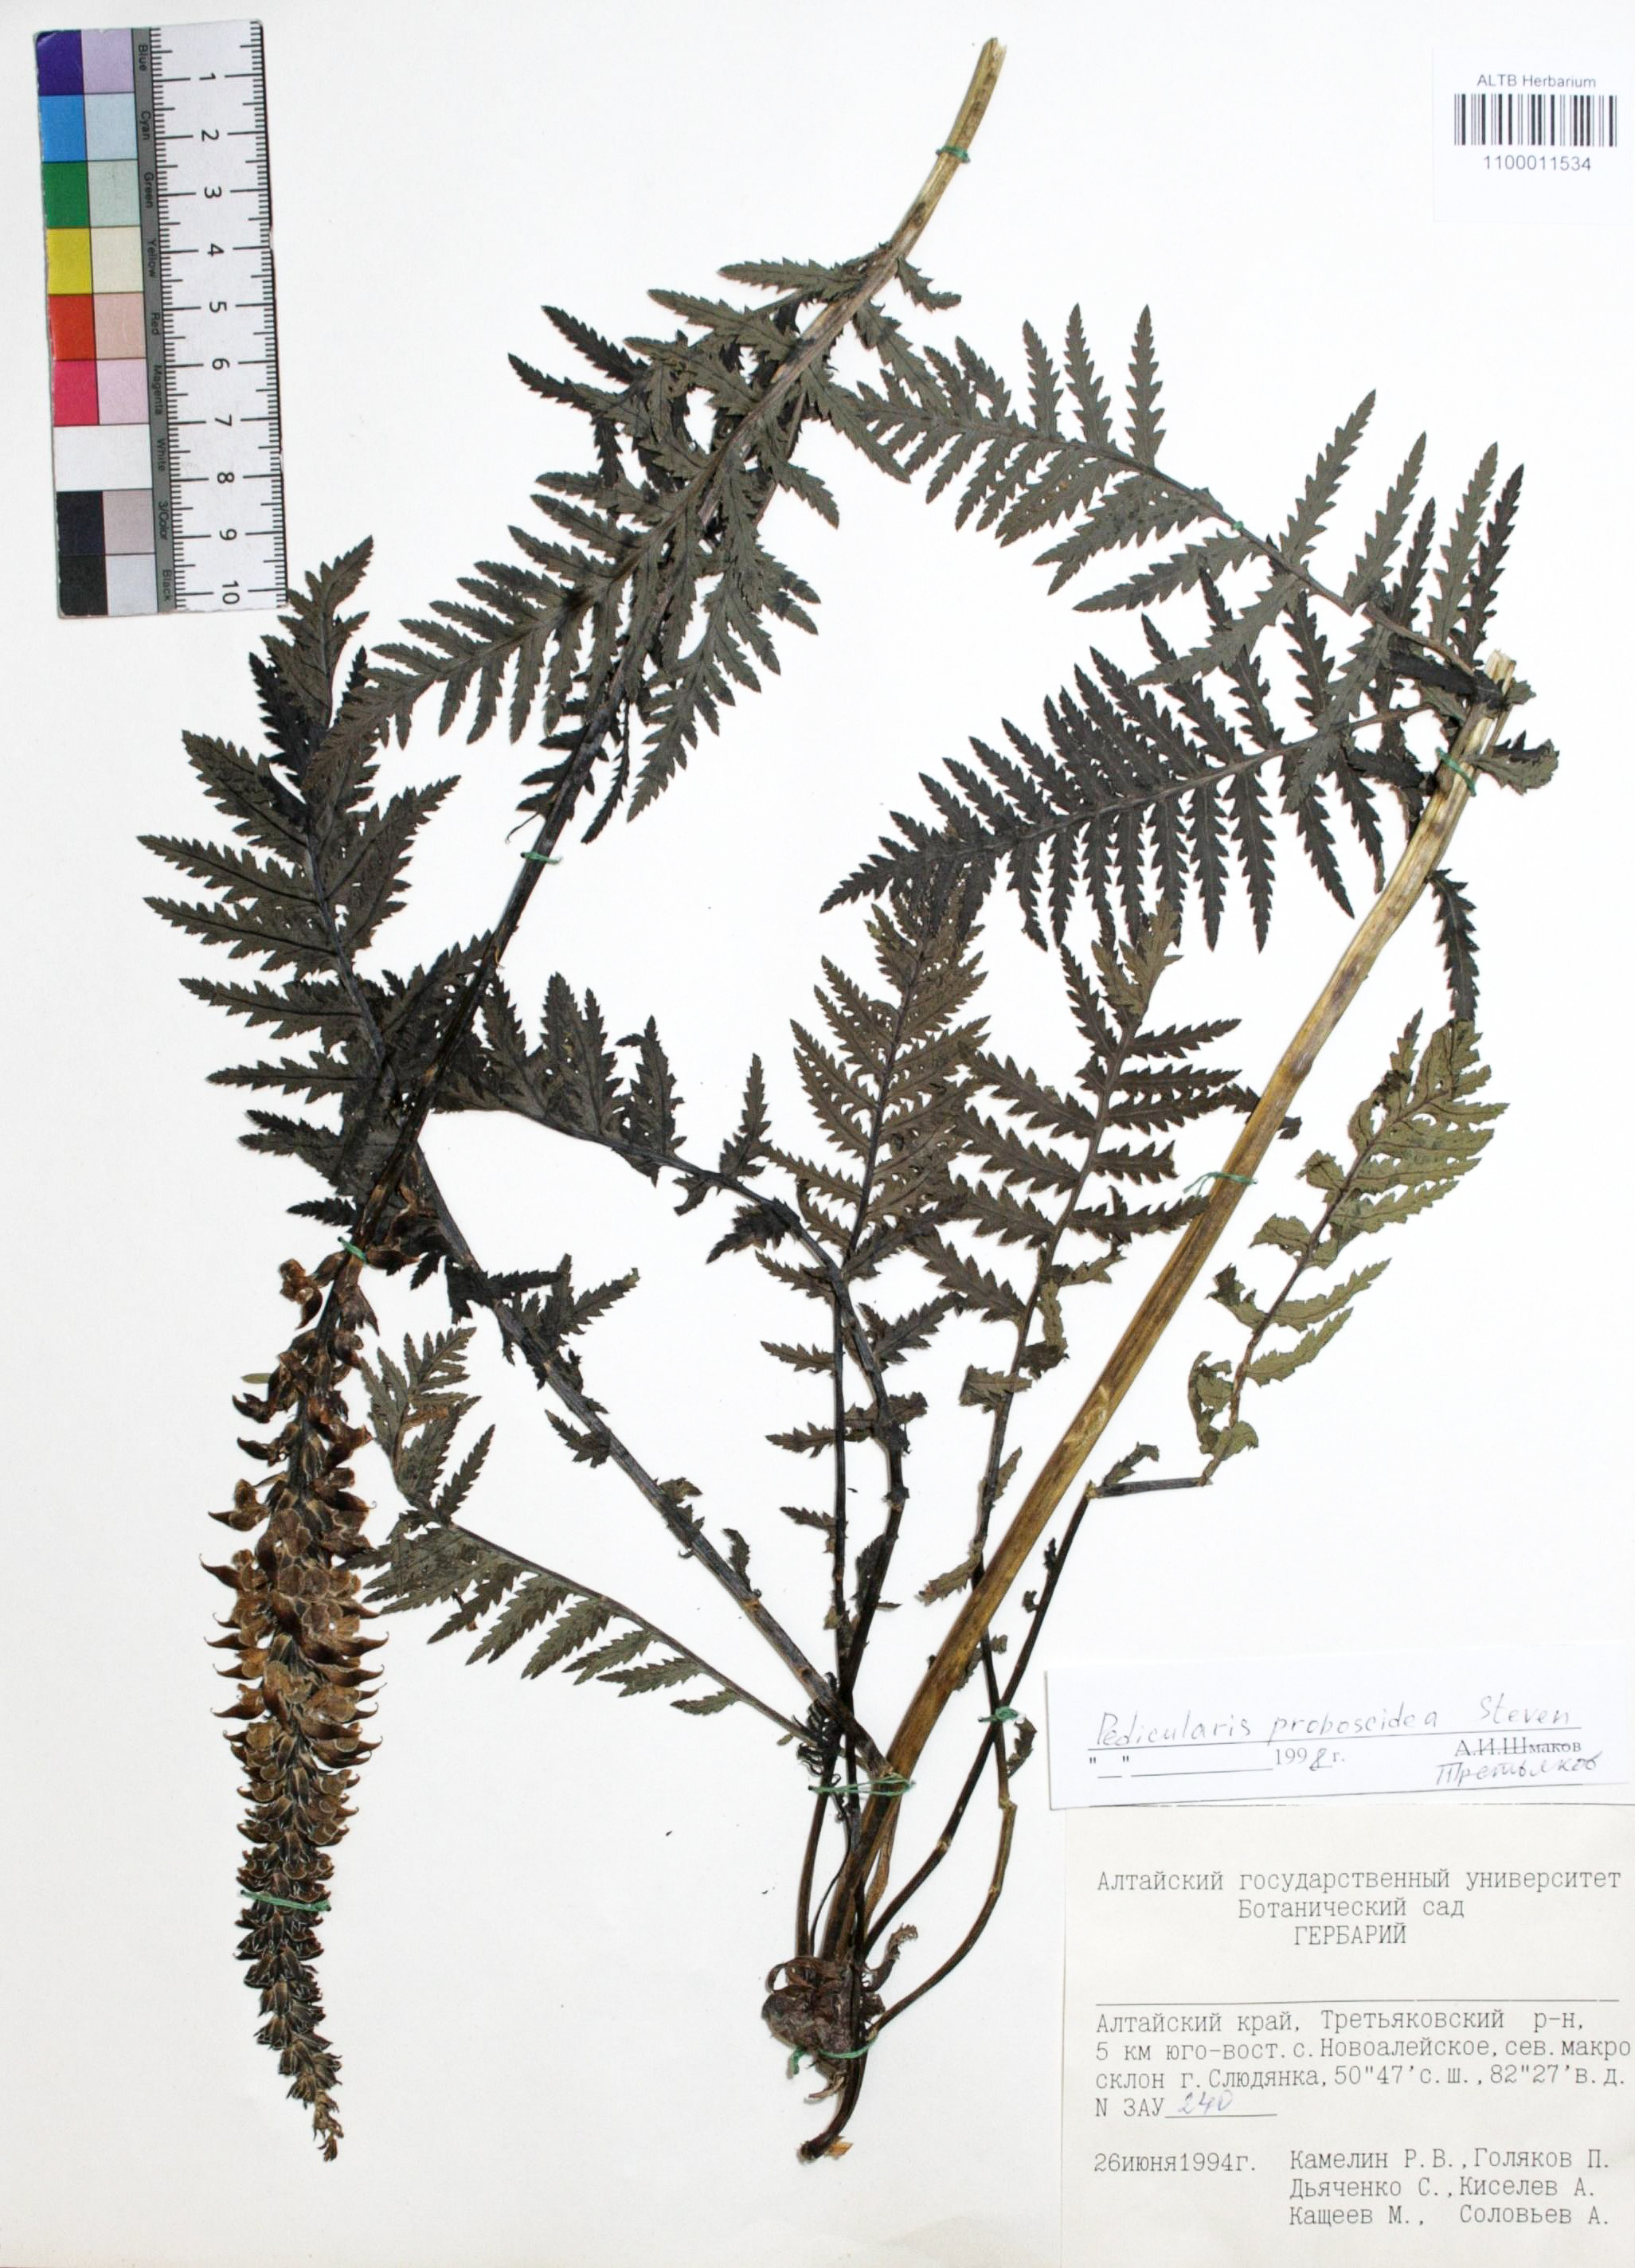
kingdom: Plantae
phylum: Tracheophyta
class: Magnoliopsida
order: Lamiales
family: Orobanchaceae
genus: Pedicularis
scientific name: Pedicularis proboscidea
